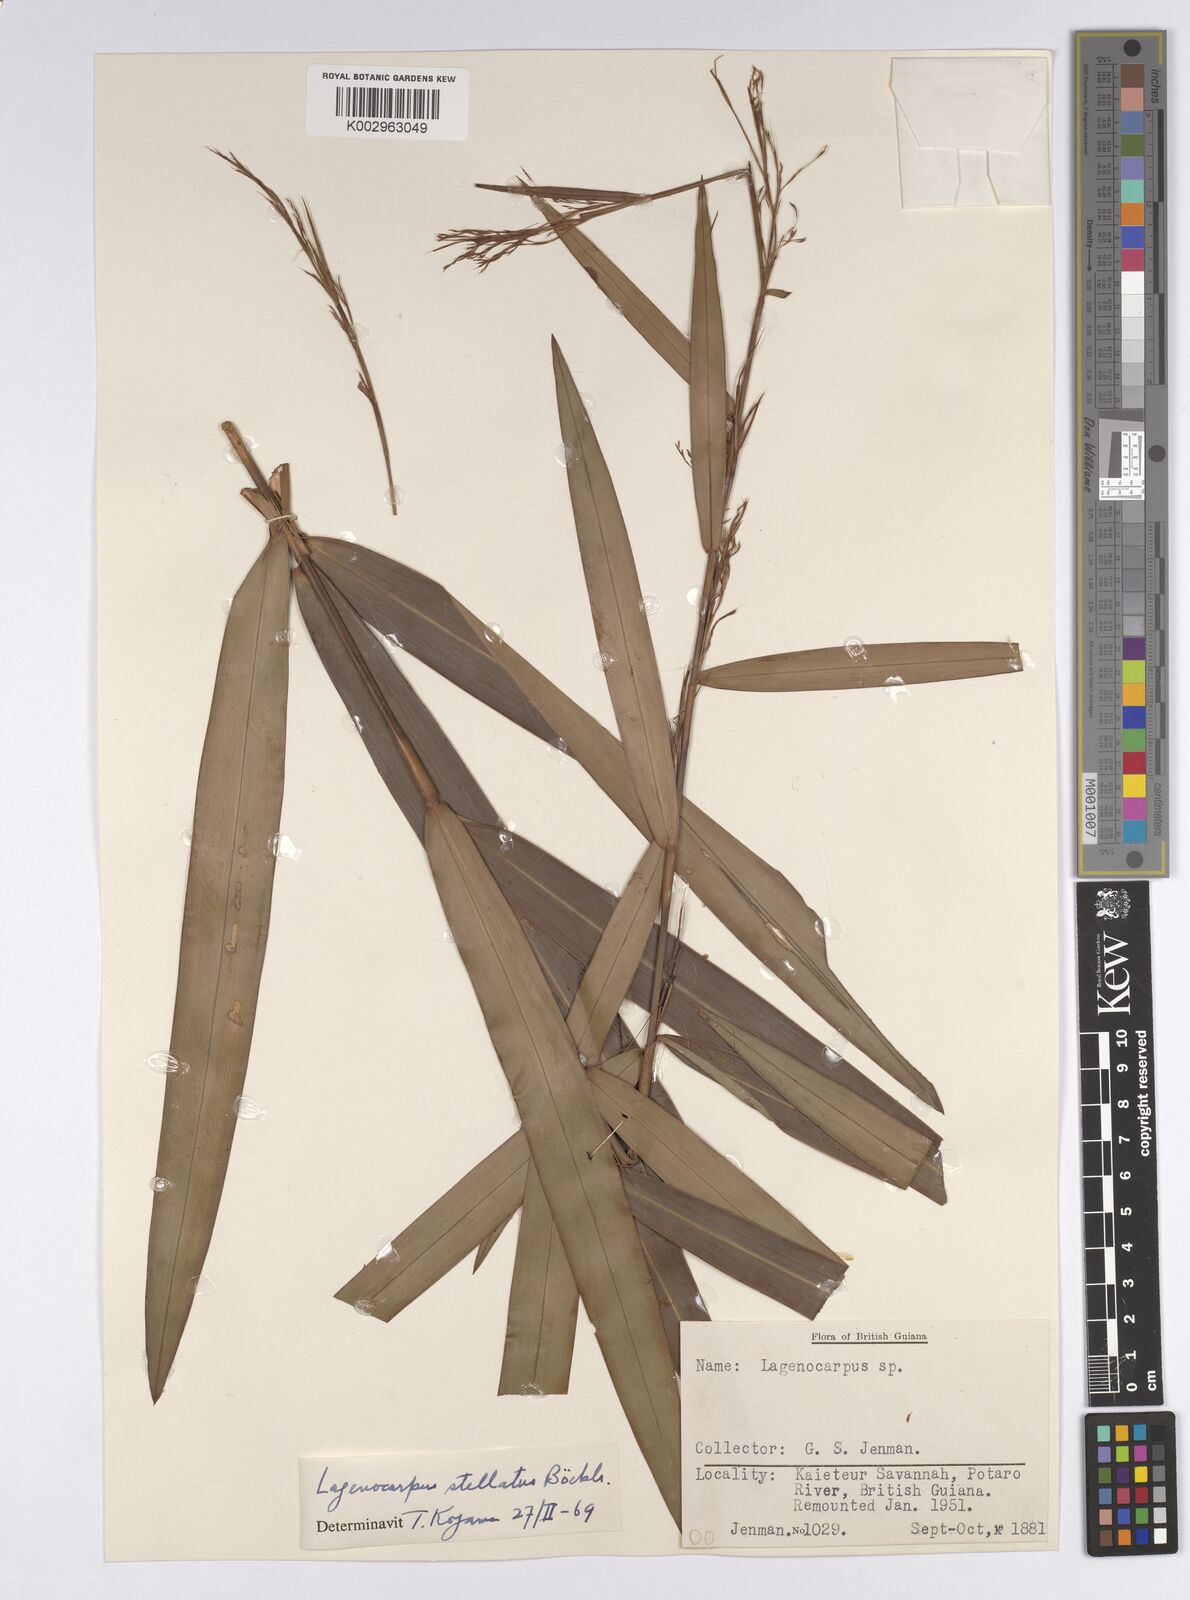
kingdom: Plantae
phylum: Tracheophyta
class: Liliopsida
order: Poales
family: Cyperaceae
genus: Didymiandrum
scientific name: Didymiandrum stellatum
